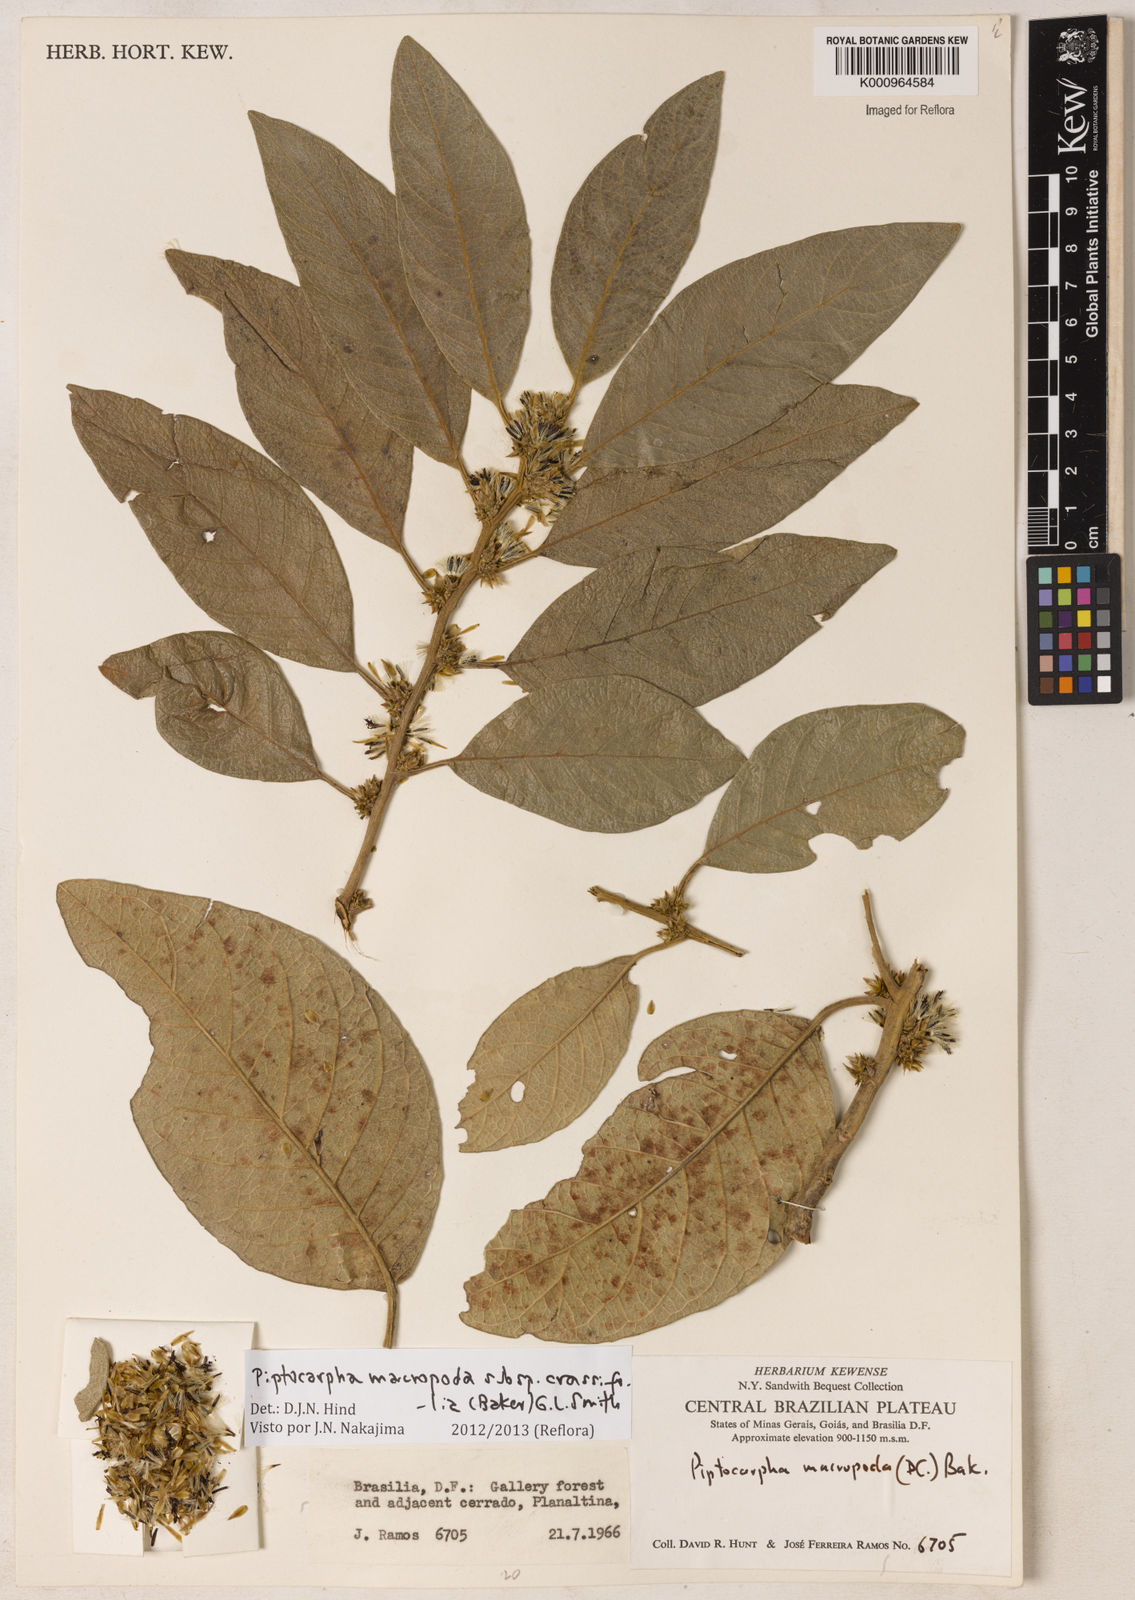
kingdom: Plantae
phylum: Tracheophyta
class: Magnoliopsida
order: Asterales
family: Asteraceae
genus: Piptocarpha
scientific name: Piptocarpha macropoda
